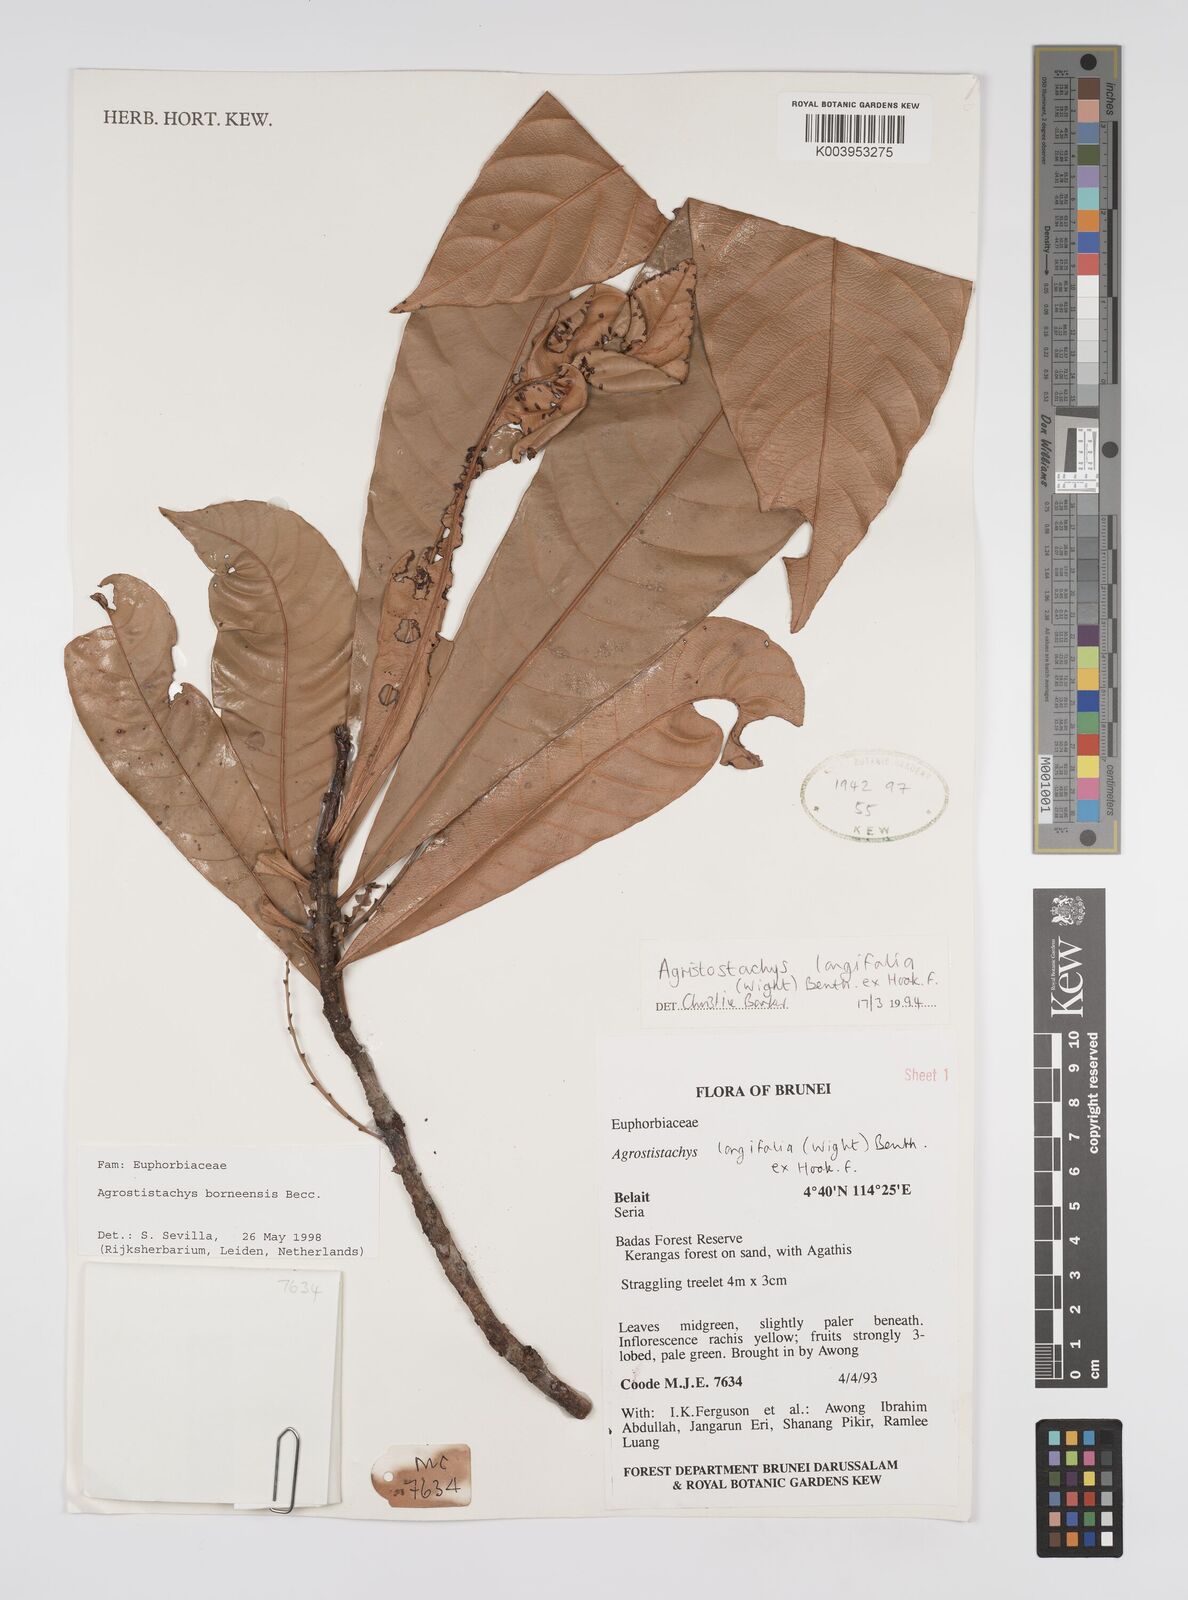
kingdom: Plantae
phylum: Tracheophyta
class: Magnoliopsida
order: Malpighiales
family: Euphorbiaceae
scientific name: Euphorbiaceae
